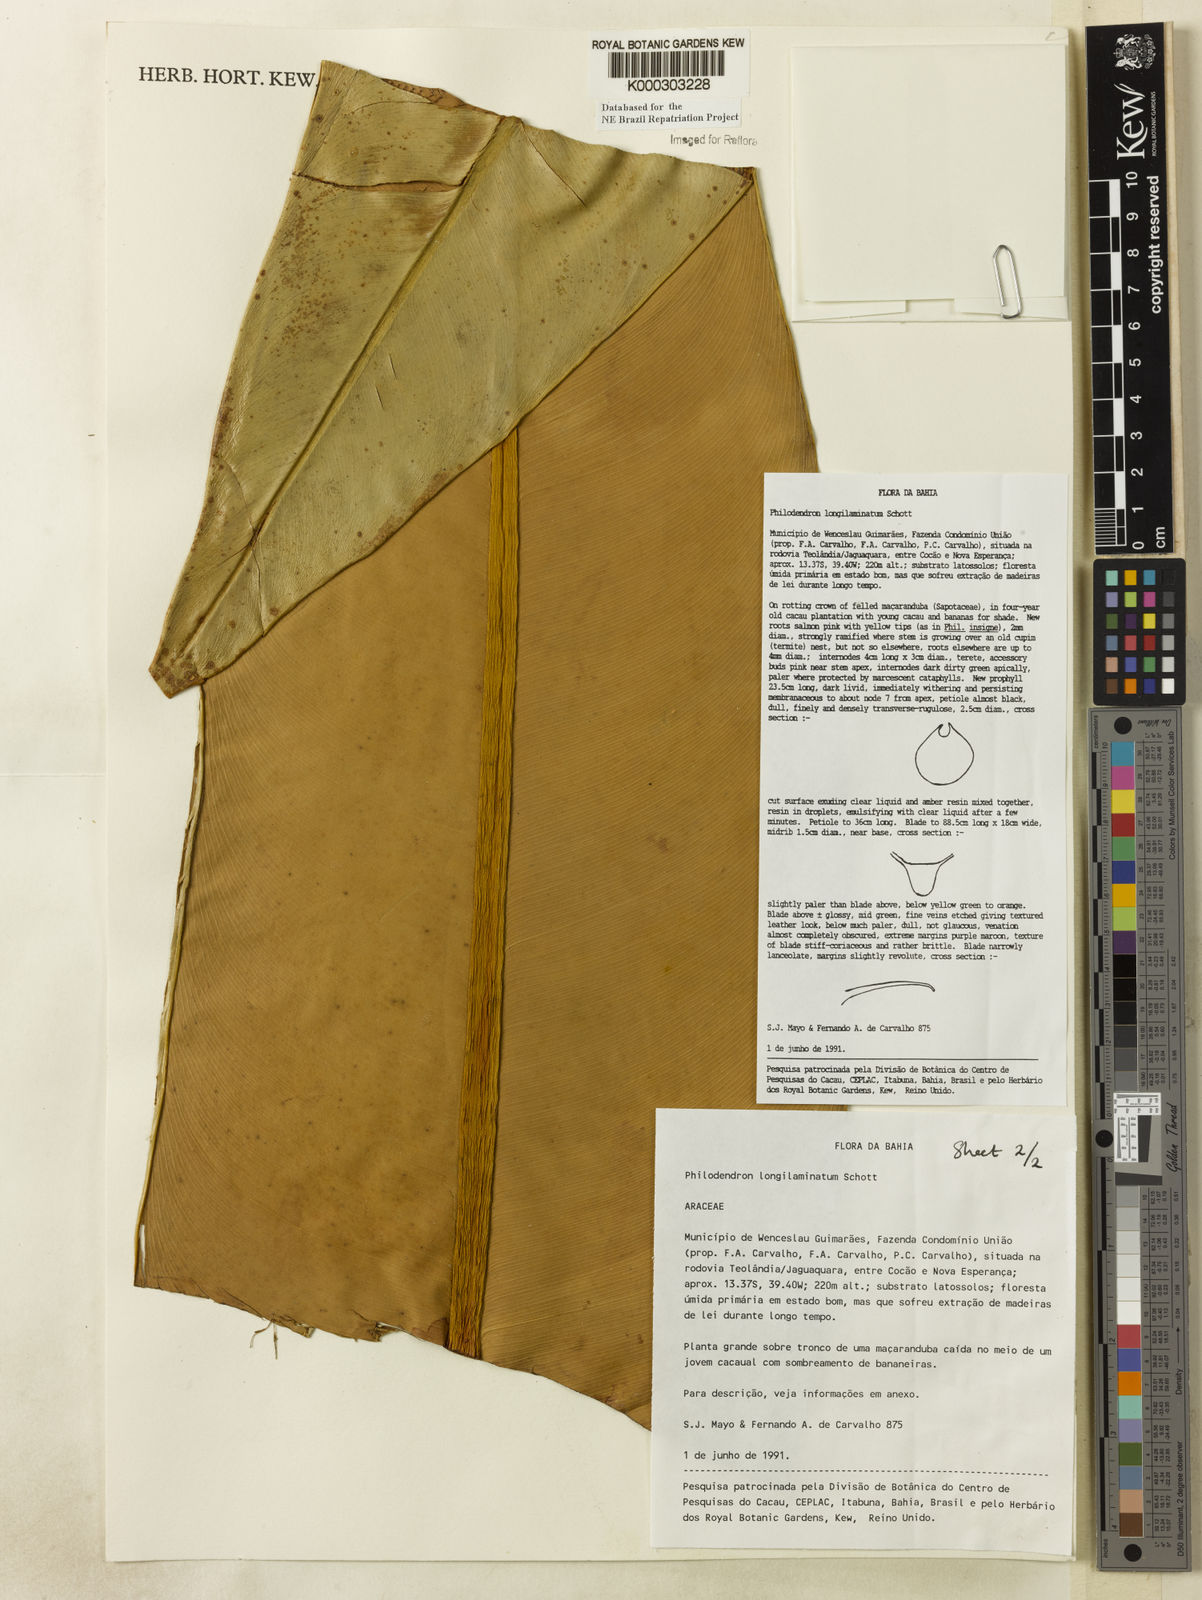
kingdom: Plantae
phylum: Tracheophyta
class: Liliopsida
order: Alismatales
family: Araceae
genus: Philodendron
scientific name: Philodendron longilaminatum
